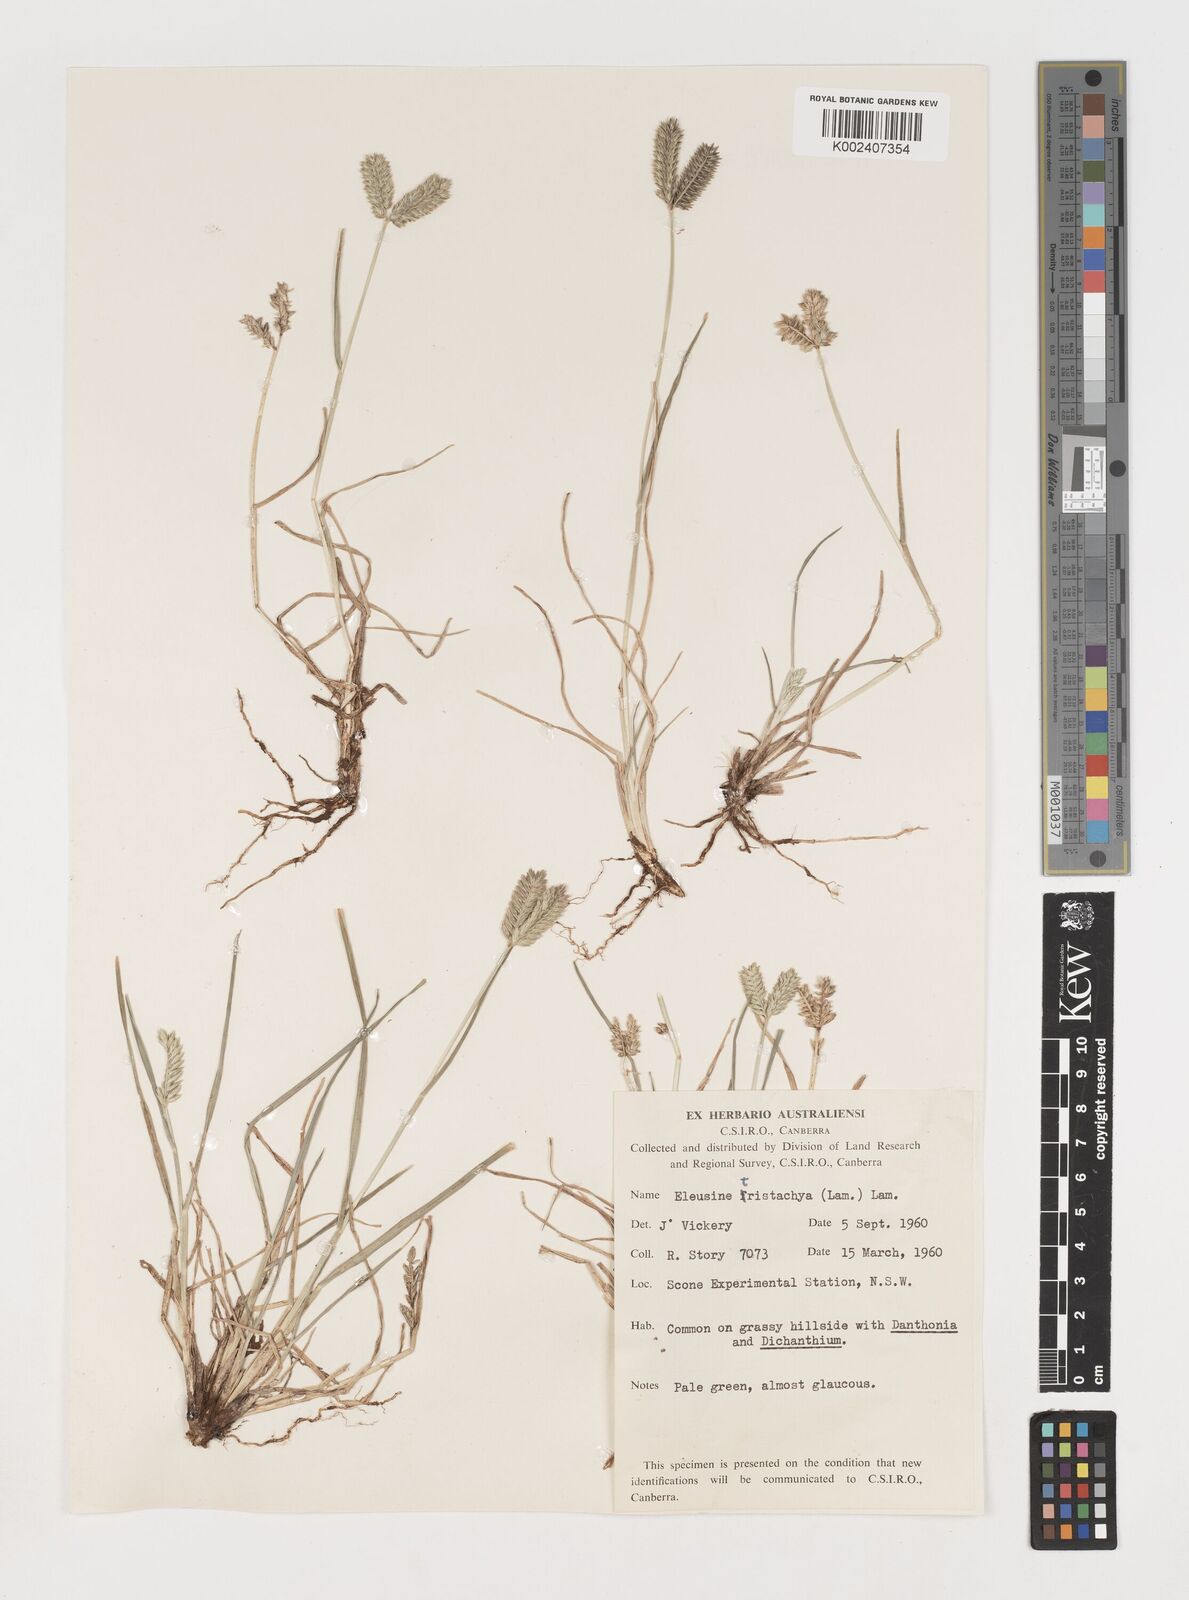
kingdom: Plantae
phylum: Tracheophyta
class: Liliopsida
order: Poales
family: Poaceae
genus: Eleusine
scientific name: Eleusine tristachya
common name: American yard-grass
